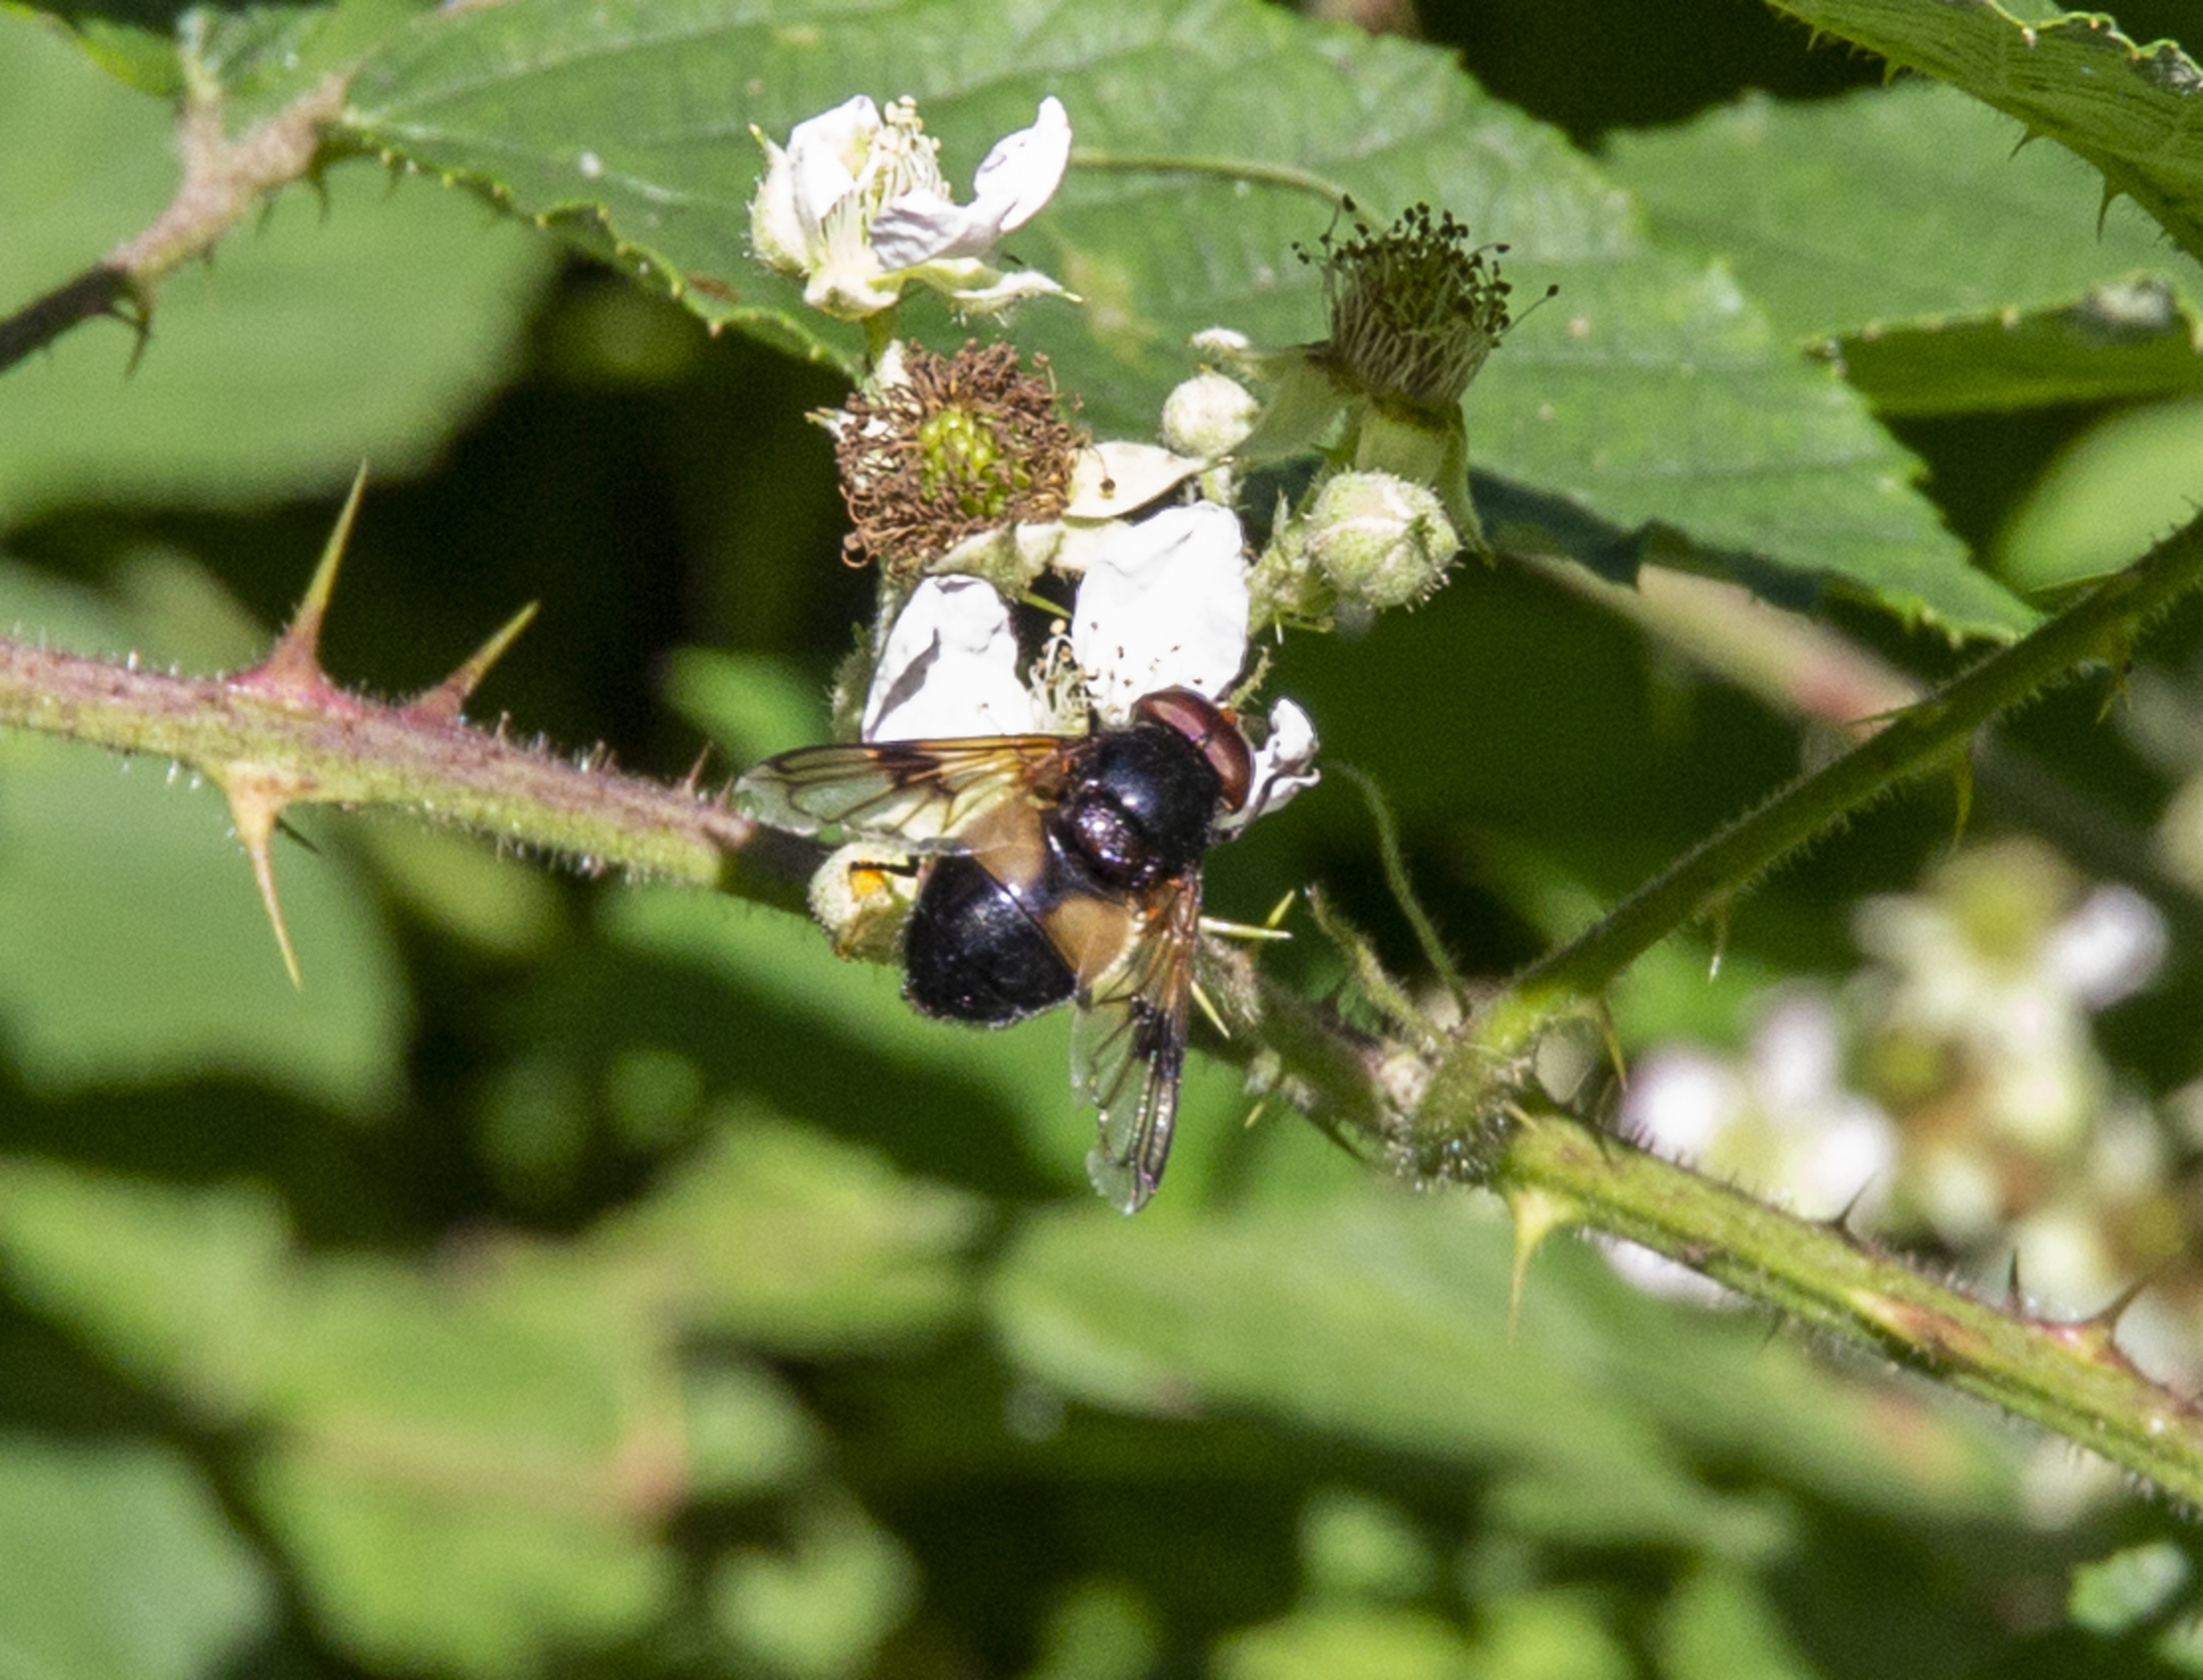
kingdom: Animalia
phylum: Arthropoda
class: Insecta
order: Diptera
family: Syrphidae
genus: Volucella
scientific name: Volucella pellucens
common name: Hvidbåndet humlesvirreflue
